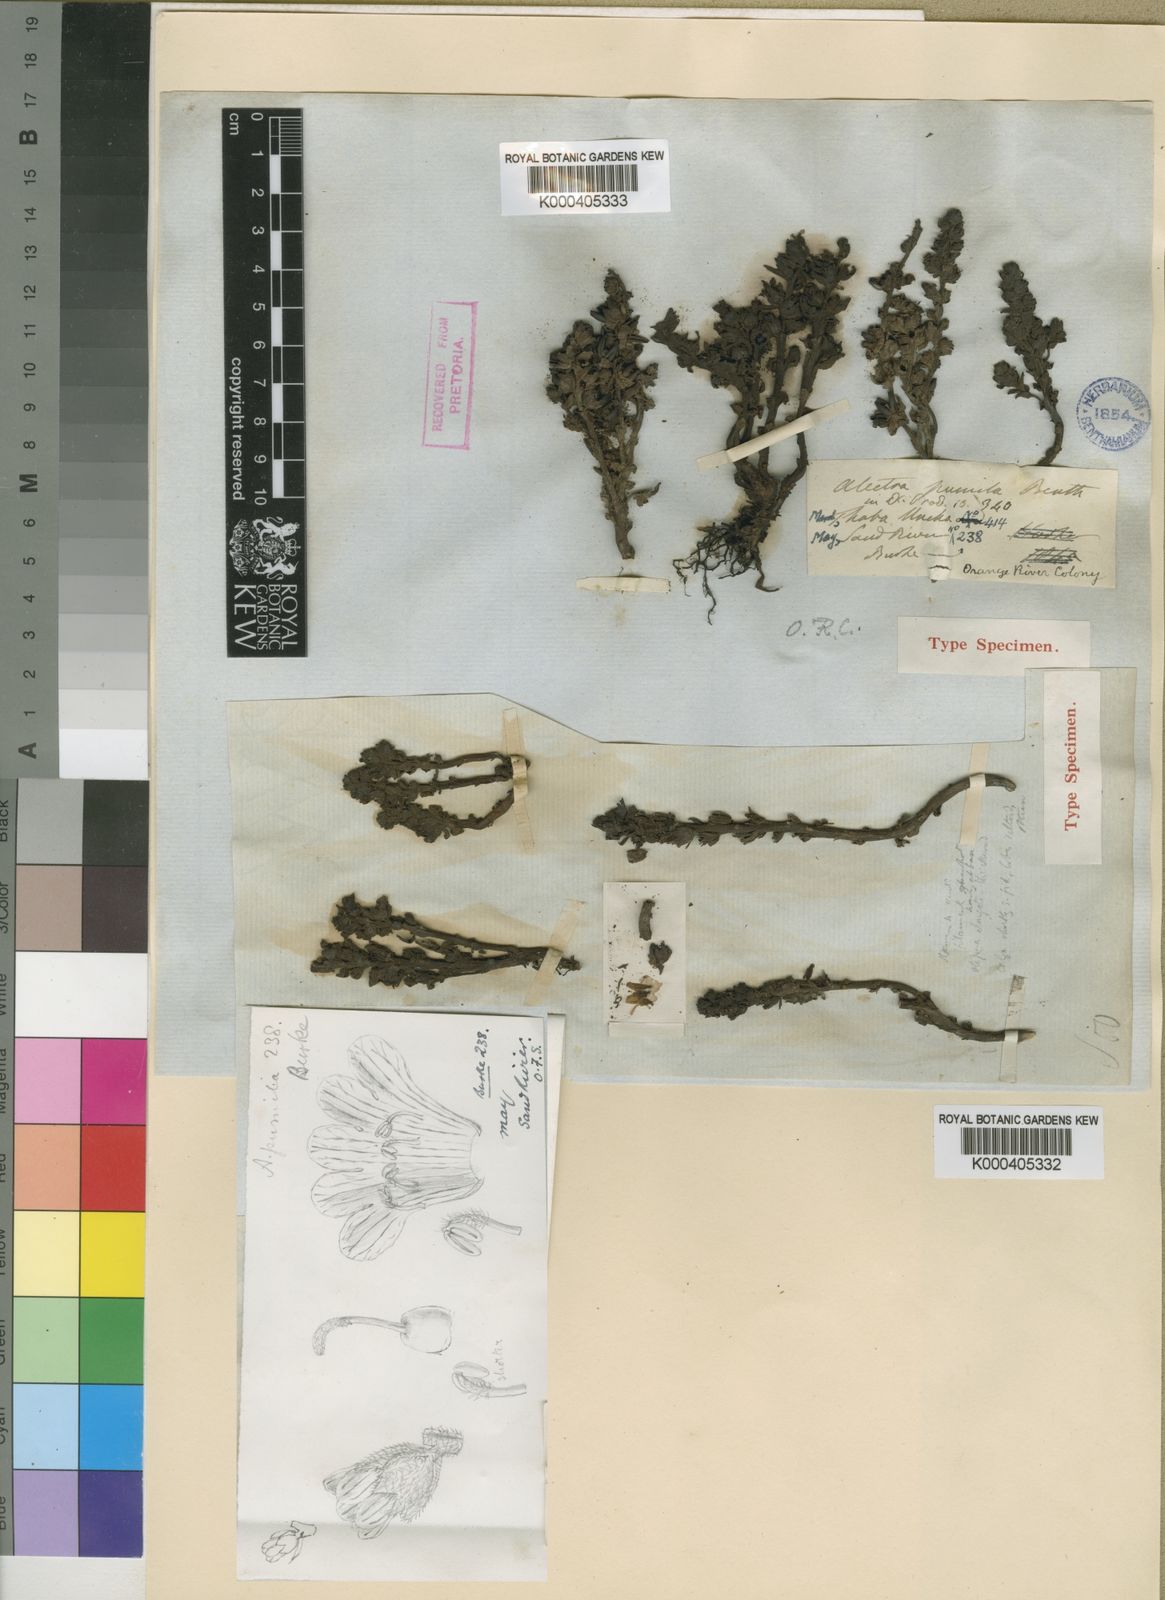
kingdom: Plantae
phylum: Tracheophyta
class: Magnoliopsida
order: Lamiales
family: Orobanchaceae
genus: Alectra
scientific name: Alectra orobanchoides
